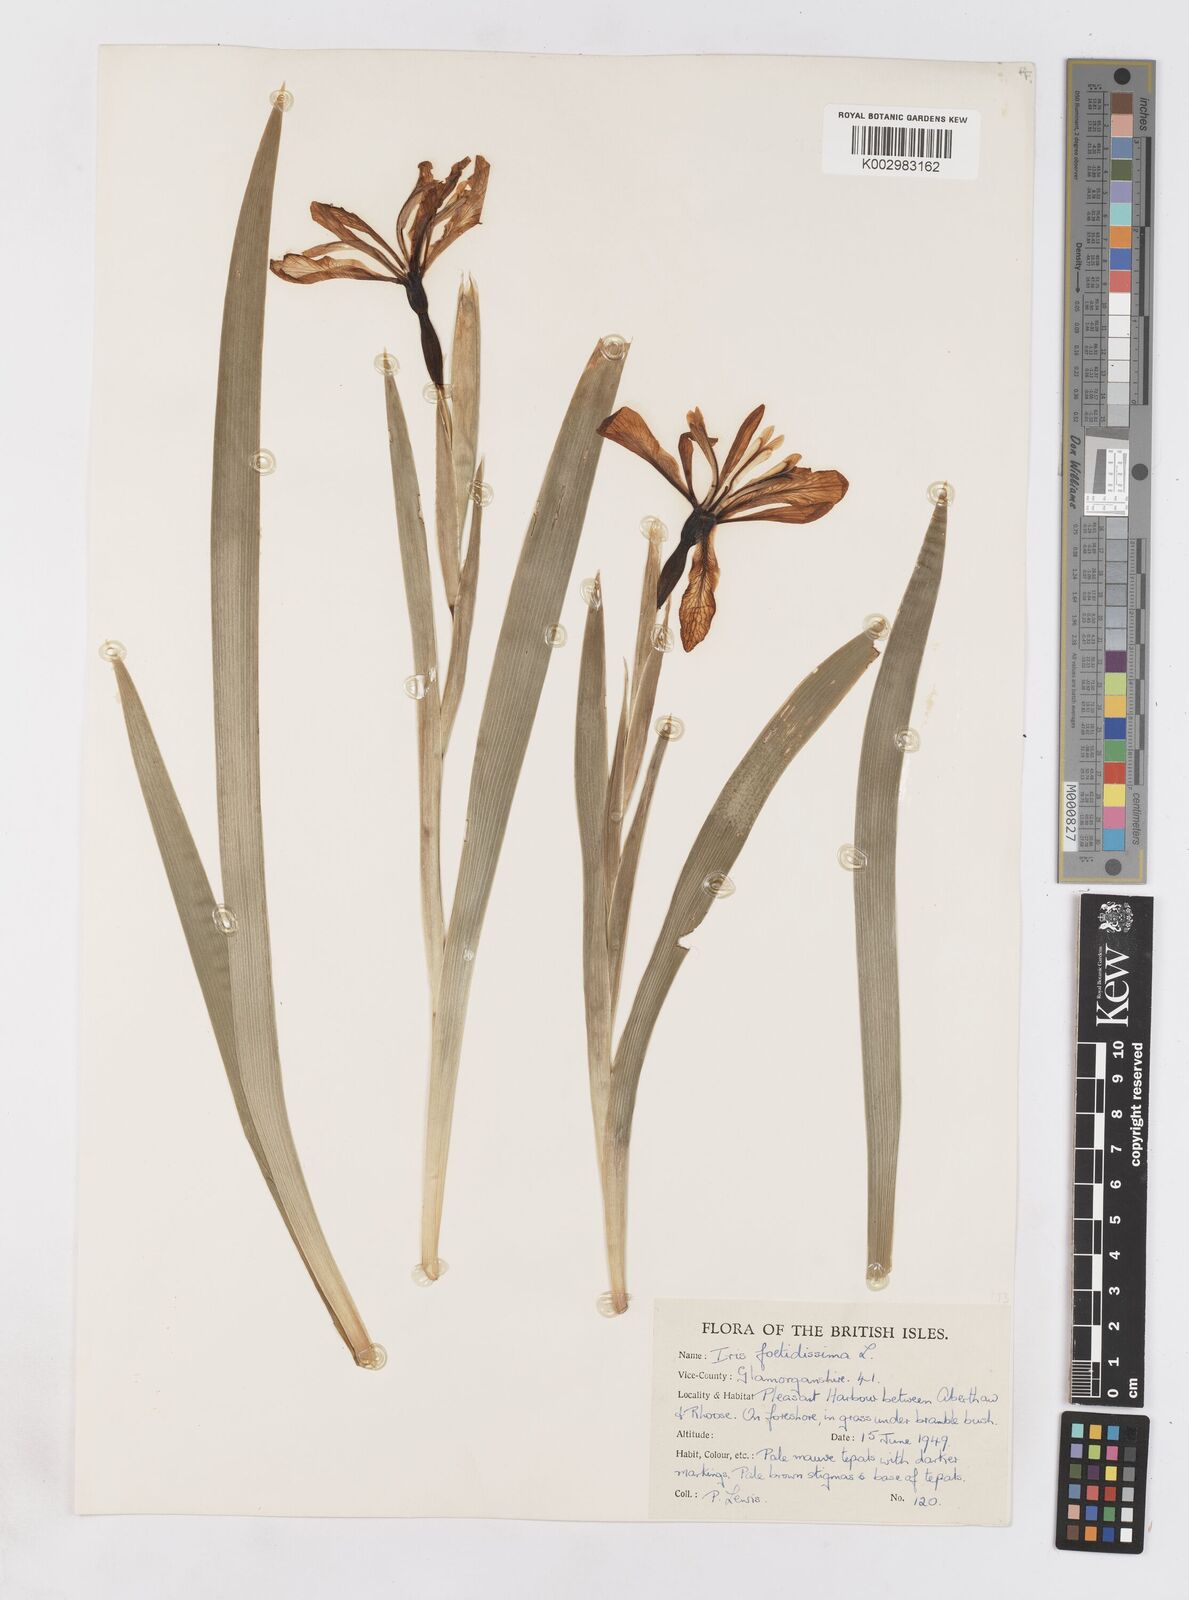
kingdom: Plantae
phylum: Tracheophyta
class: Liliopsida
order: Asparagales
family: Iridaceae
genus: Iris
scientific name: Iris foetidissima
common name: Stinking iris
